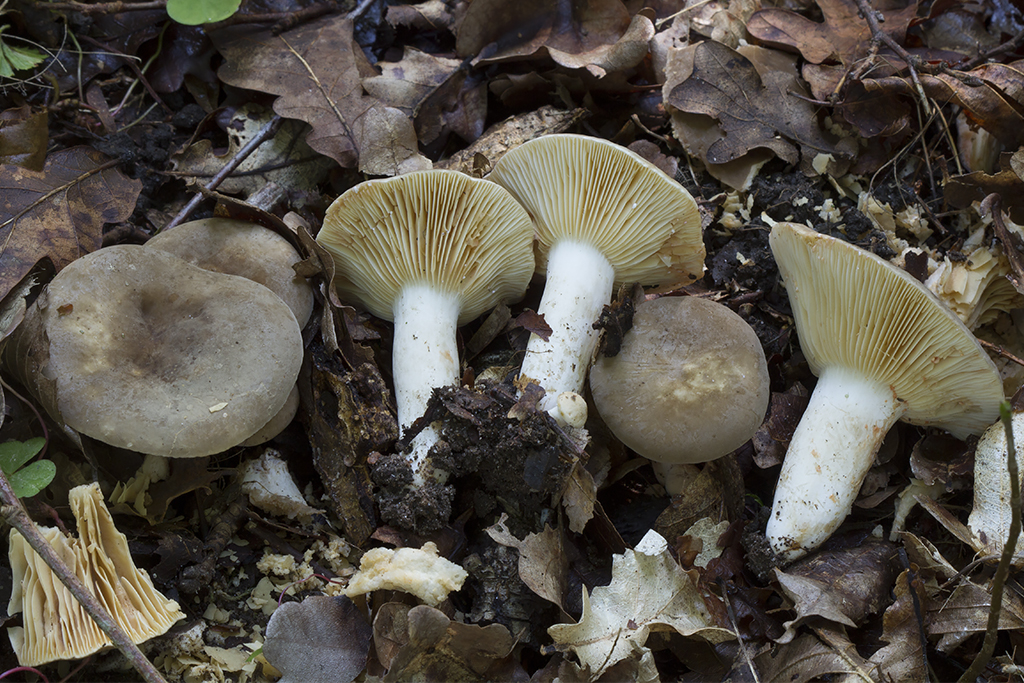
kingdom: Fungi
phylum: Basidiomycota
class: Agaricomycetes
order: Russulales
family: Russulaceae
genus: Lactarius
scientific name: Lactarius azonites
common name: røggrå mælkehat
